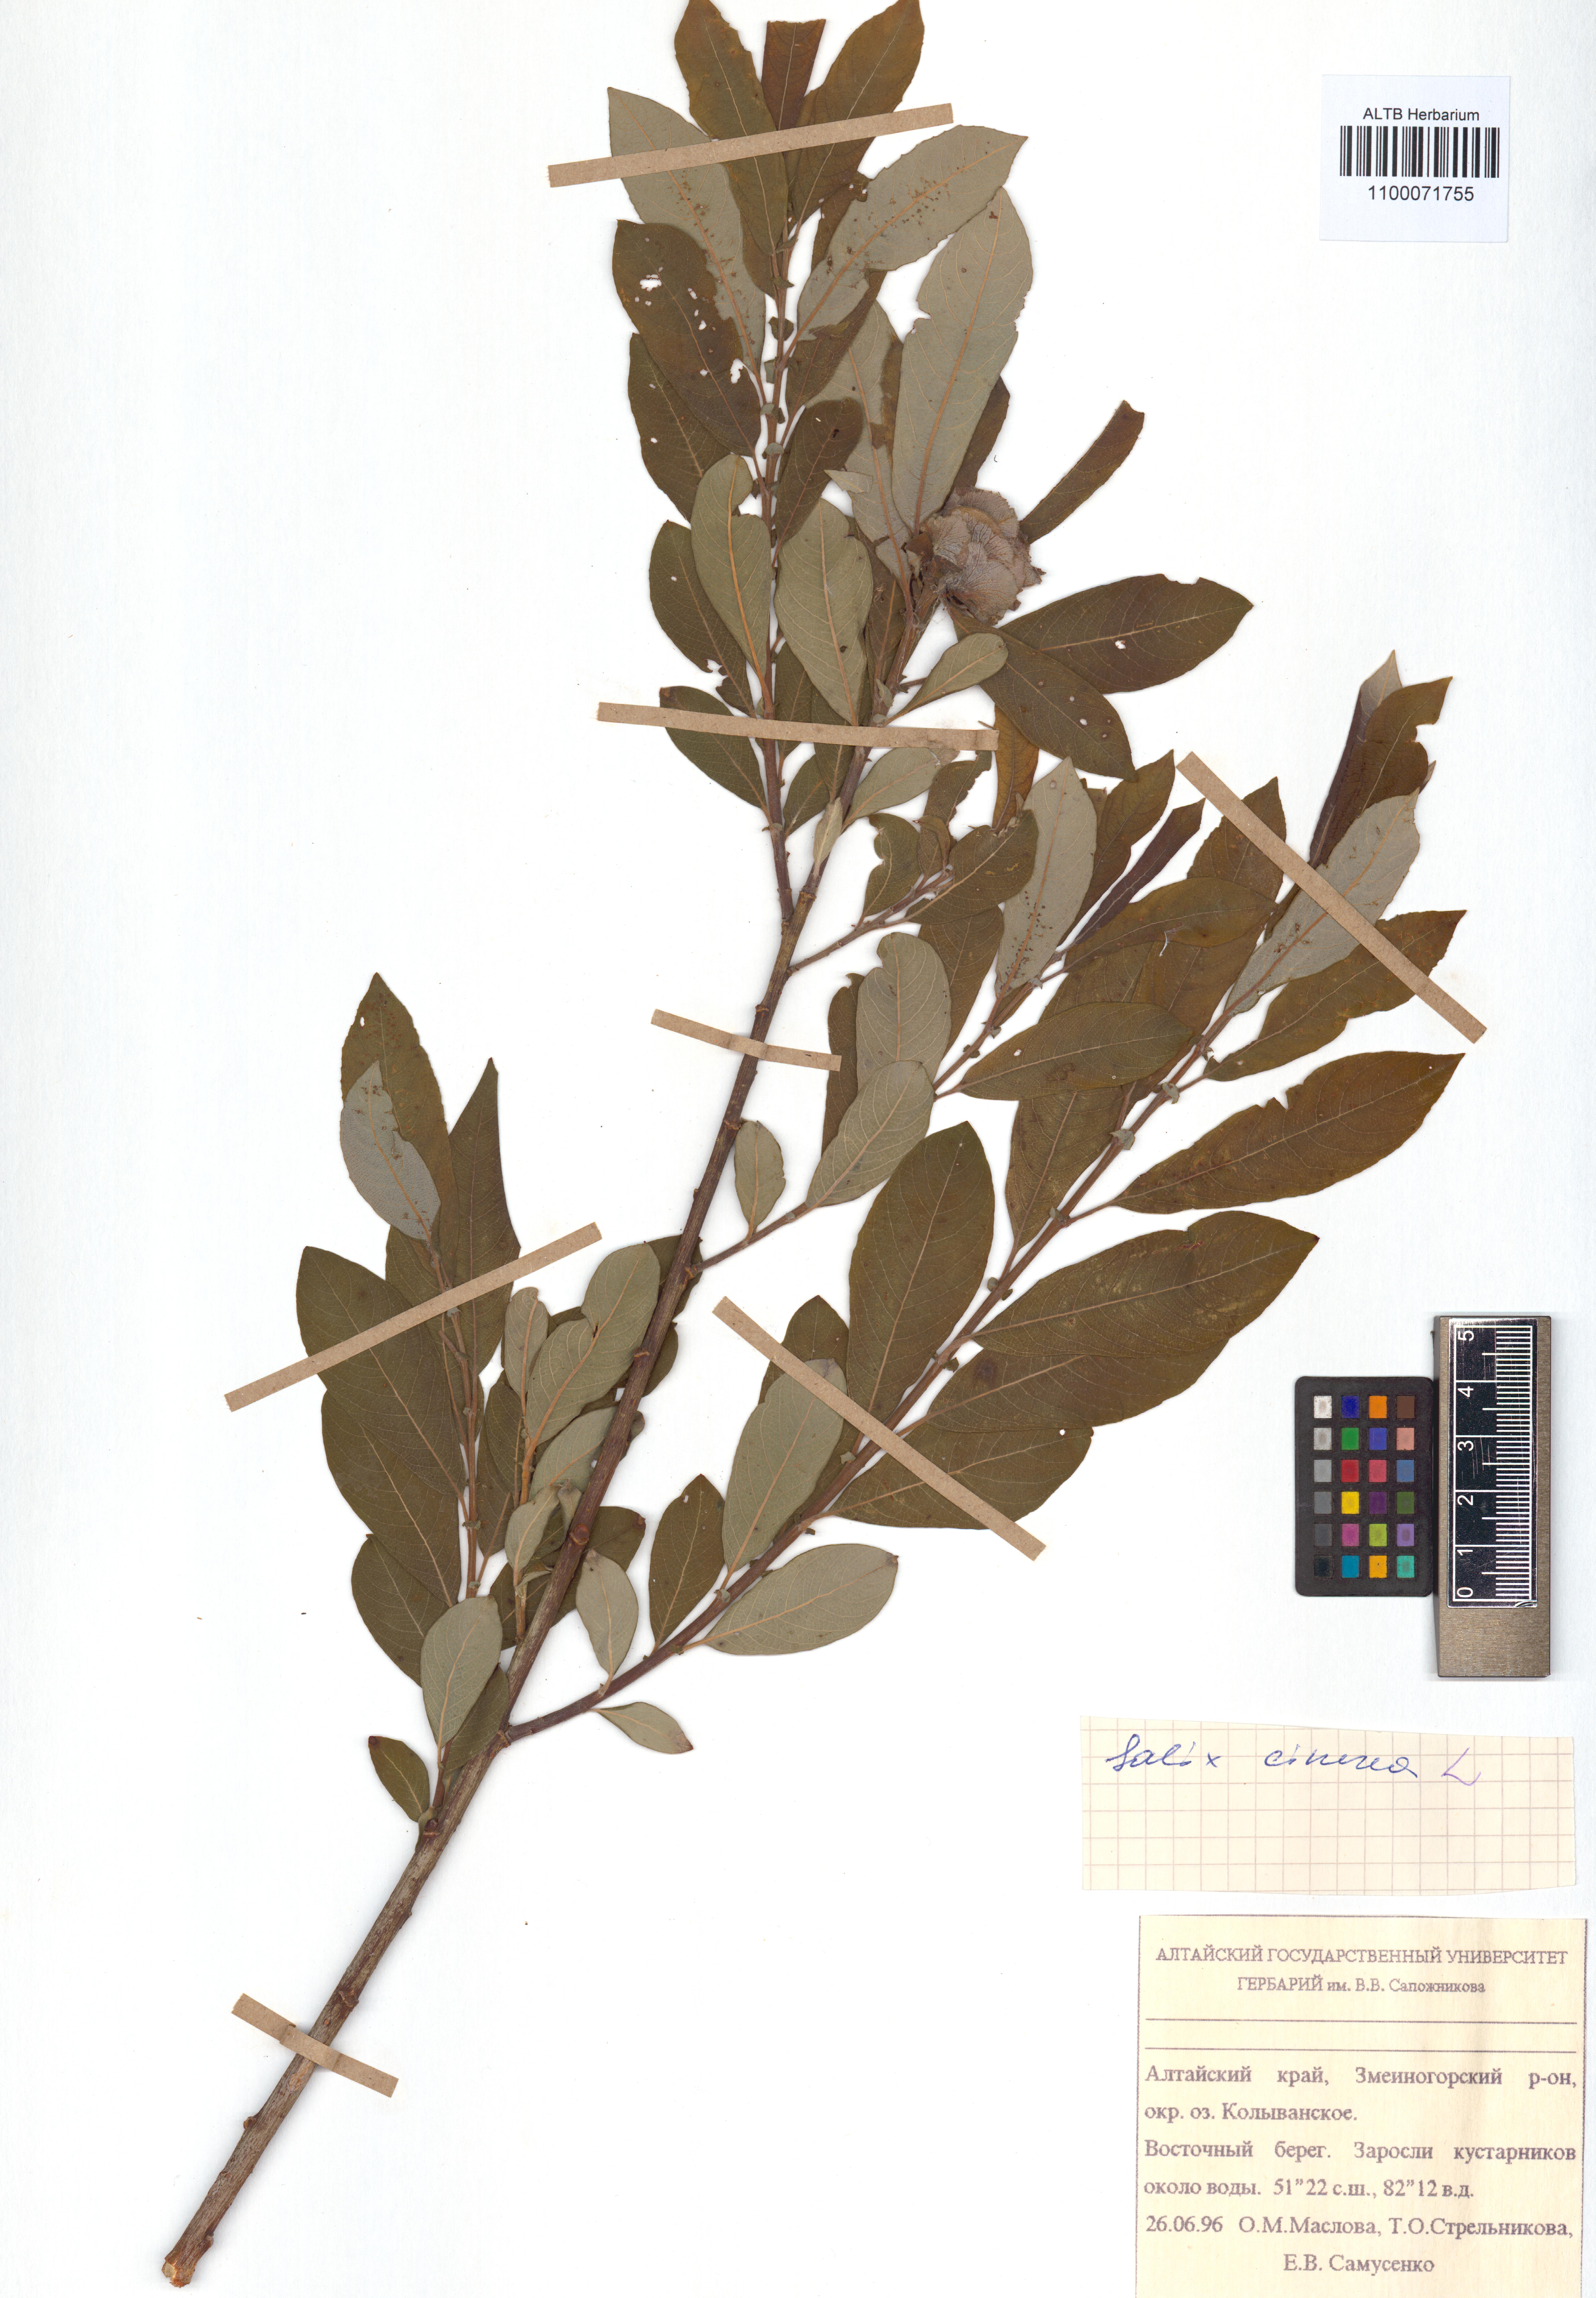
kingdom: Plantae
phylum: Tracheophyta
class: Magnoliopsida
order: Malpighiales
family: Salicaceae
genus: Salix
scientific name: Salix cinerea
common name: Common sallow
